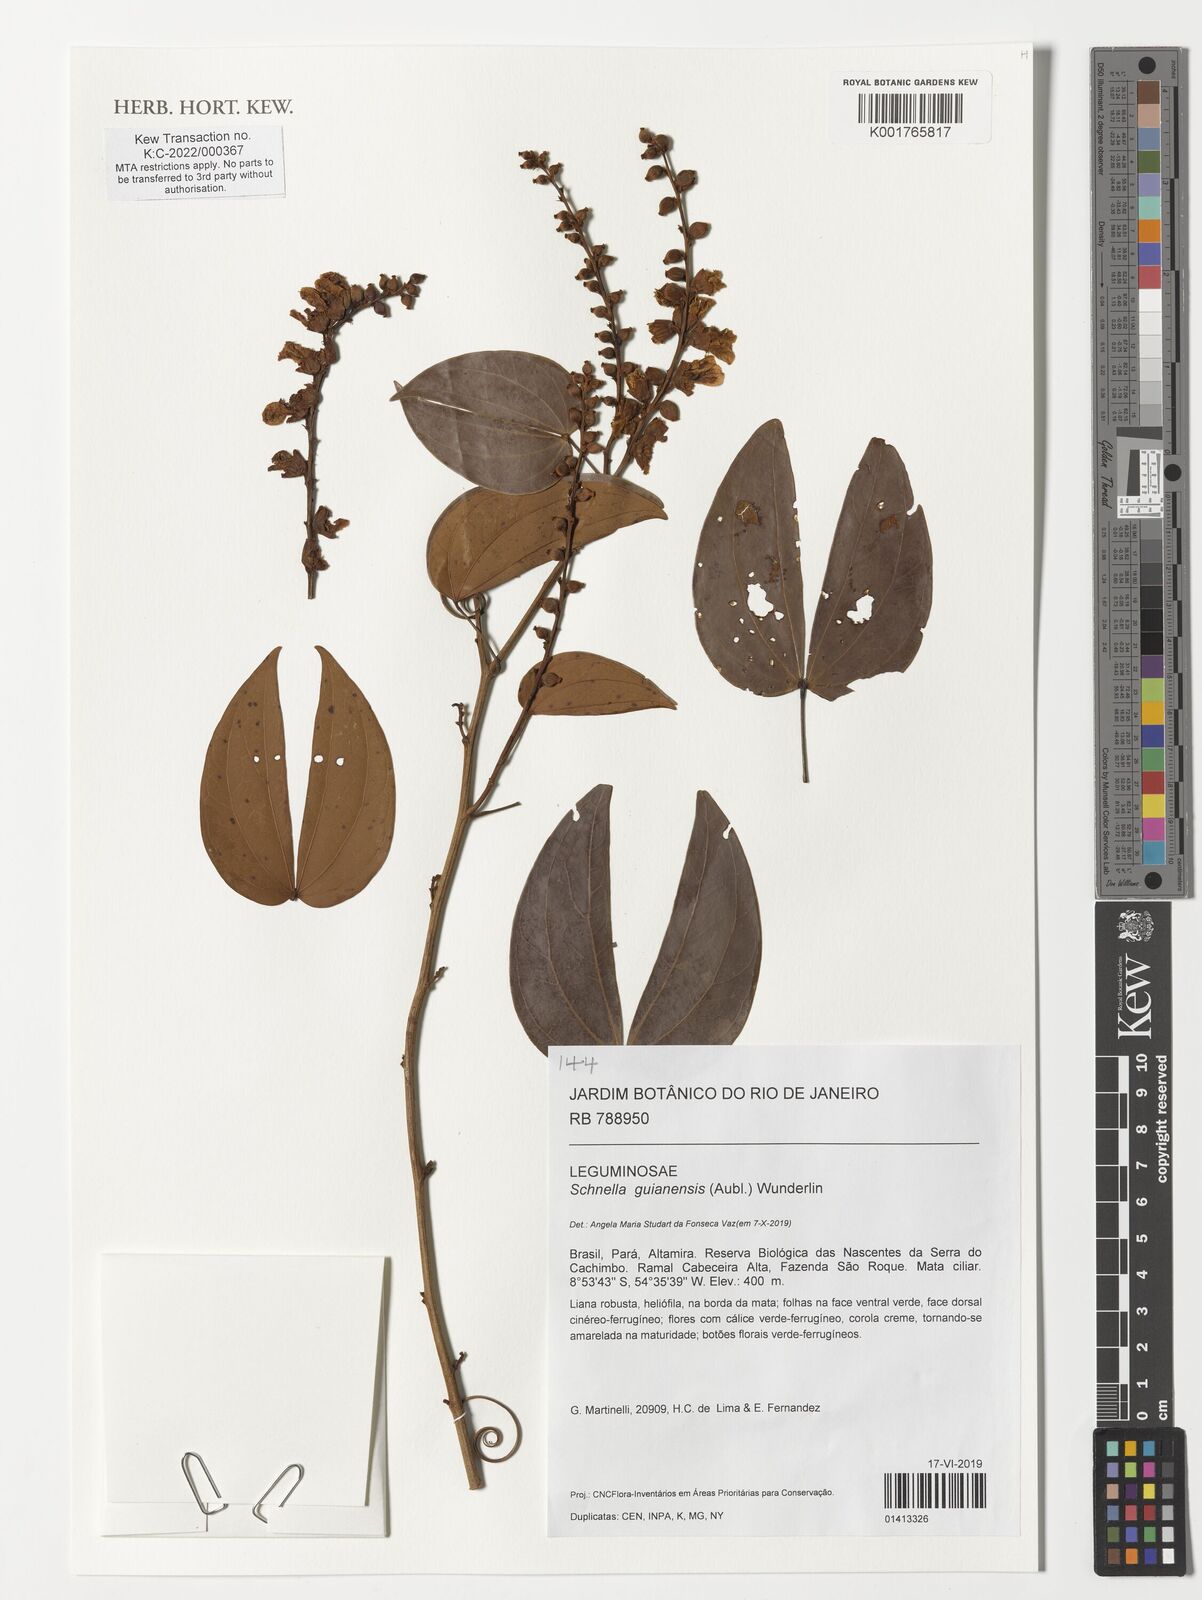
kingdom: Plantae
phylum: Tracheophyta
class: Magnoliopsida
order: Fabales
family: Fabaceae
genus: Schnella
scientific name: Schnella guianensis
